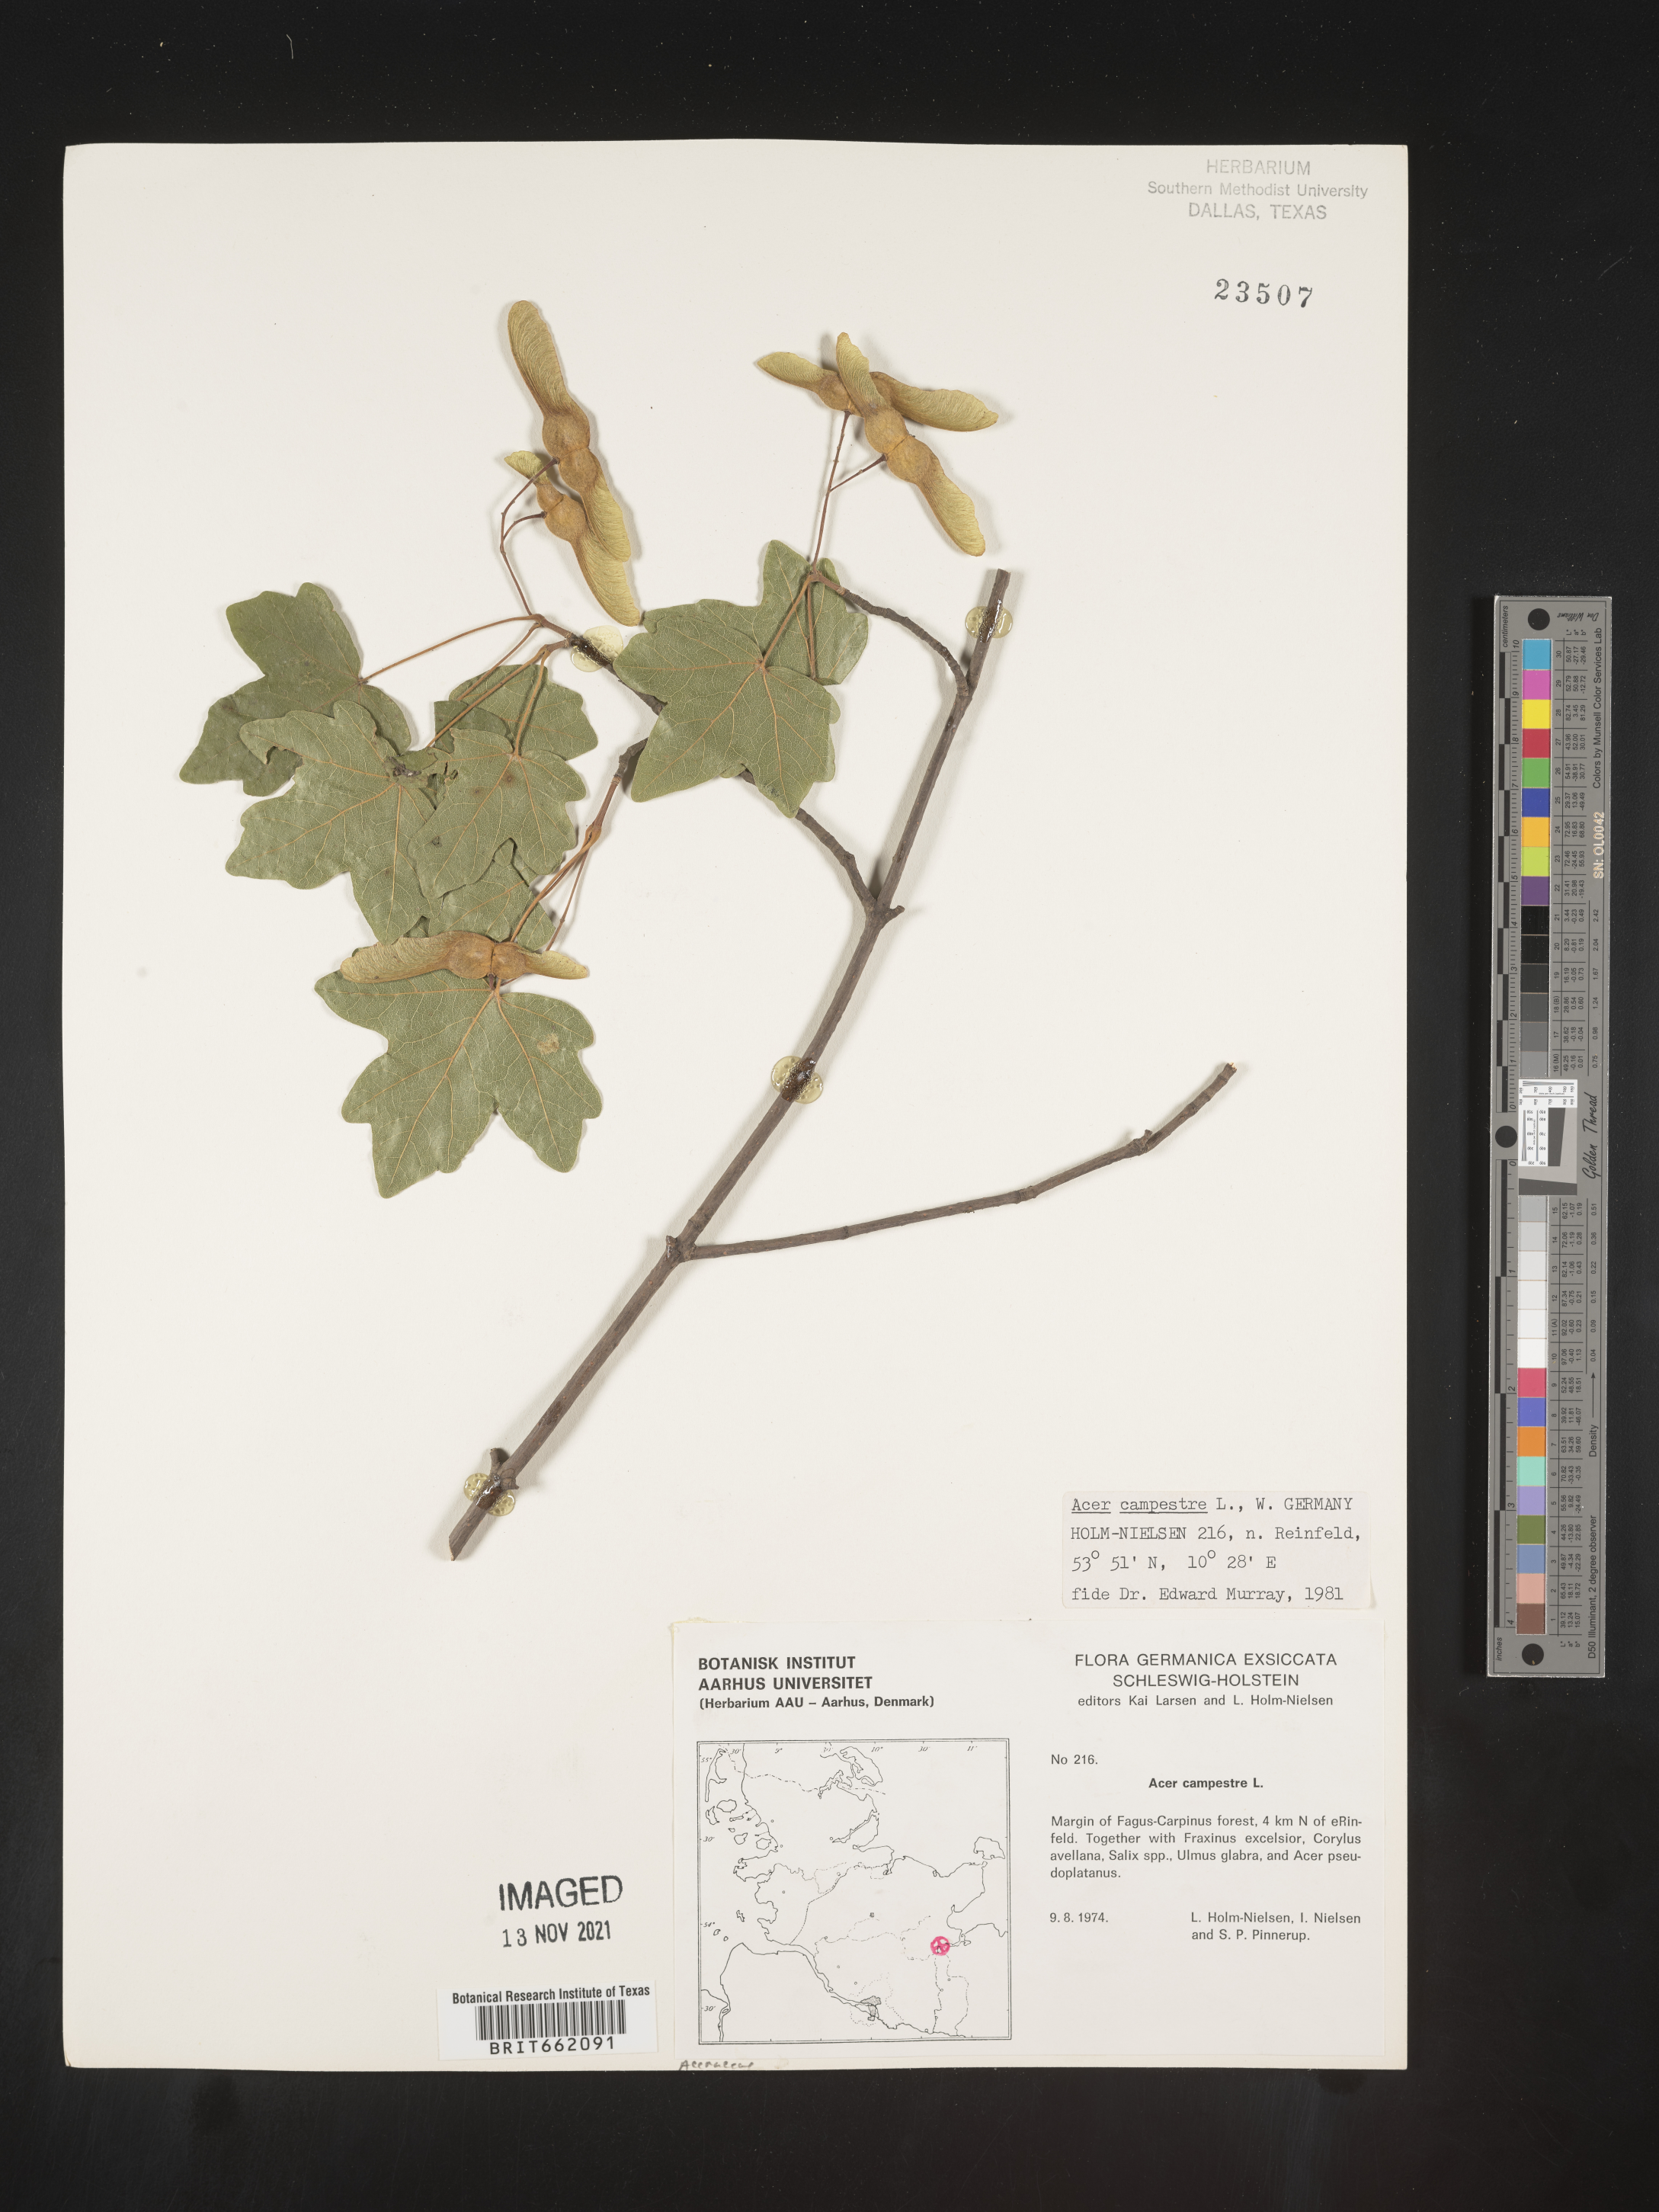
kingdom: Plantae
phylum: Tracheophyta
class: Magnoliopsida
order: Sapindales
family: Sapindaceae
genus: Acer
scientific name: Acer
